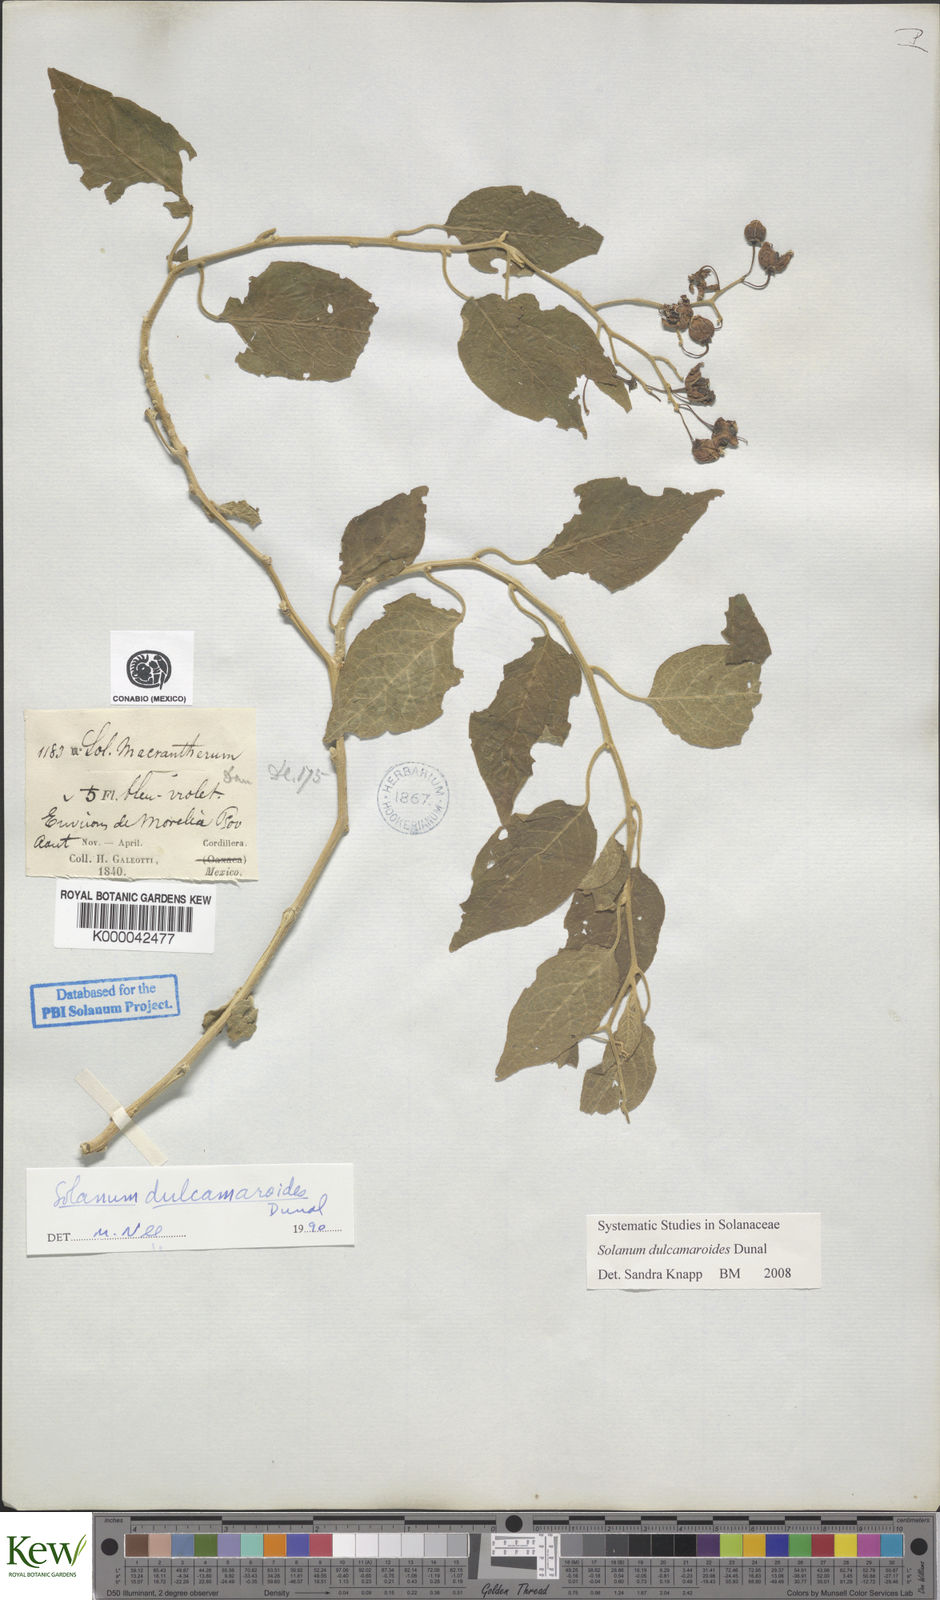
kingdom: Plantae
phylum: Tracheophyta
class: Magnoliopsida
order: Solanales
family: Solanaceae
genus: Solanum
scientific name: Solanum dulcamaroides
